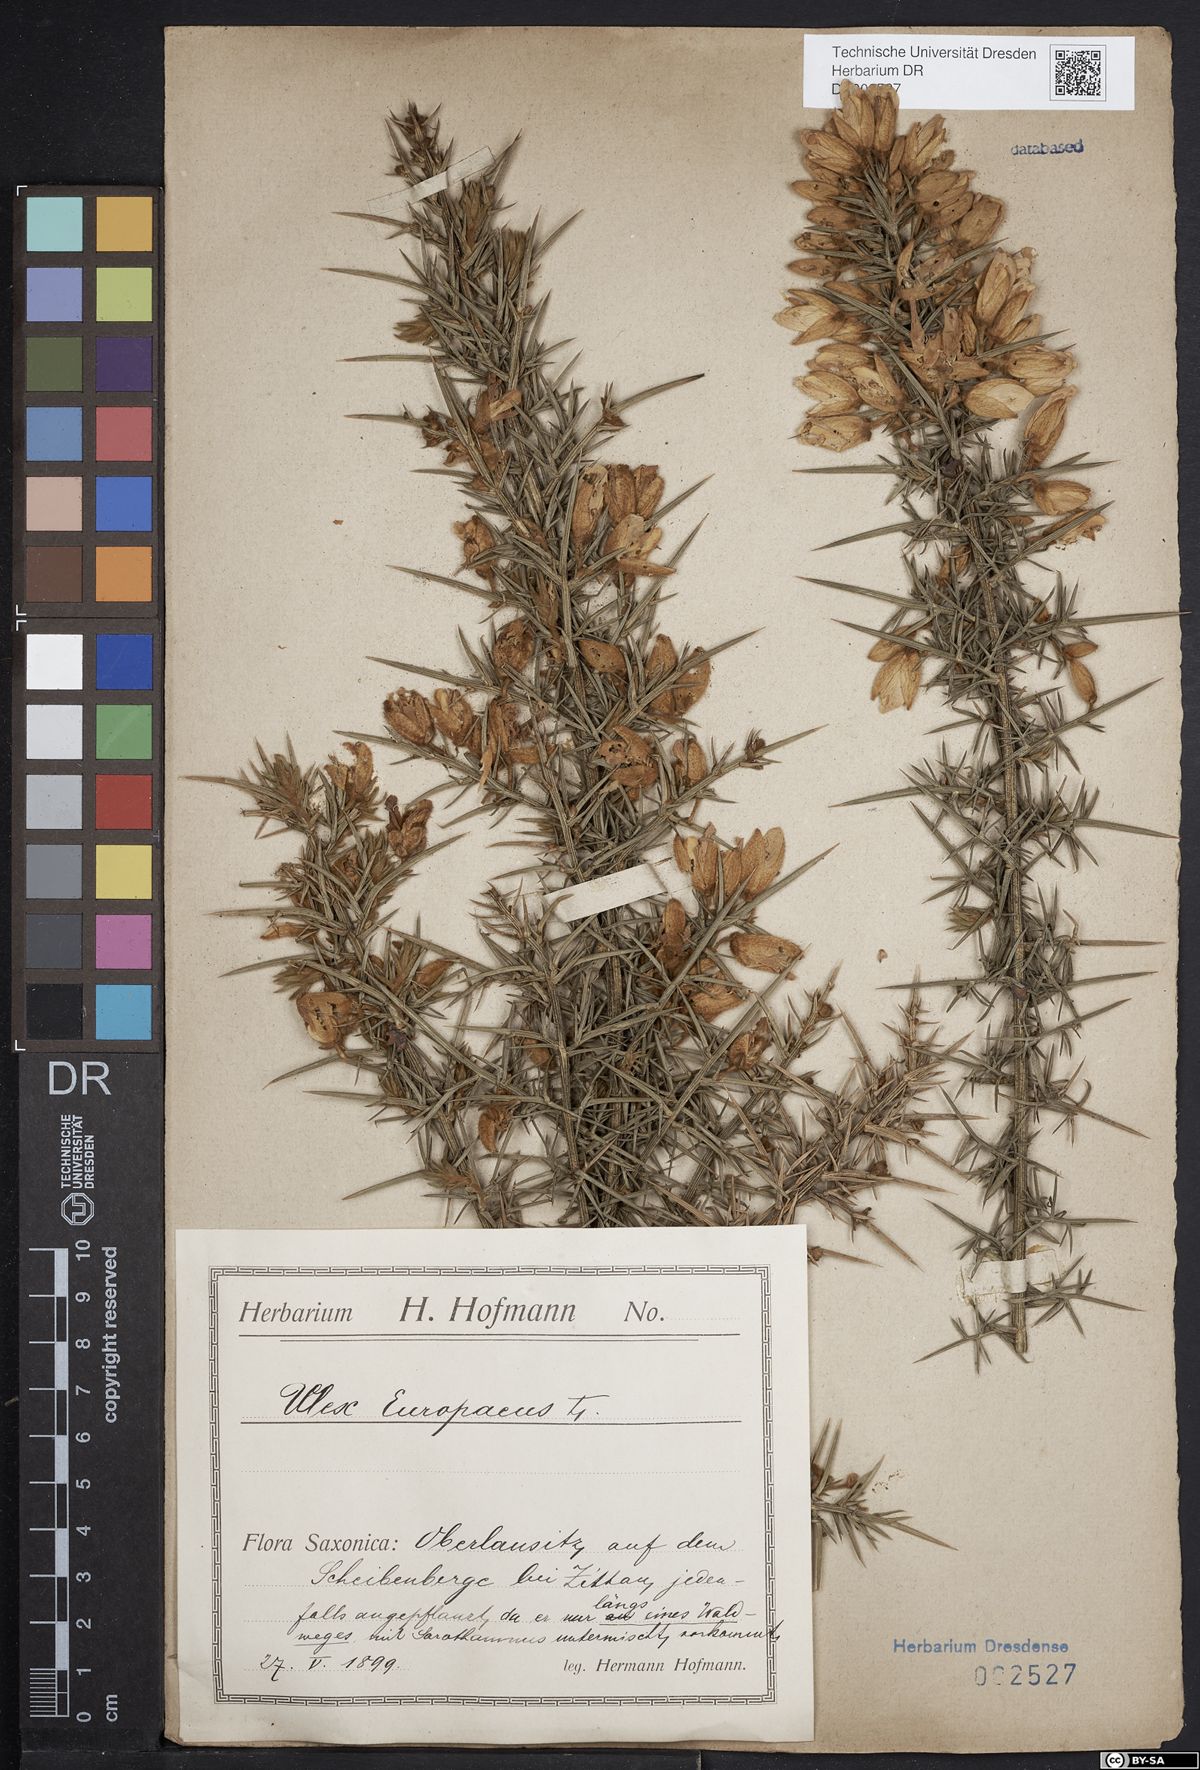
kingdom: Plantae
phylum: Tracheophyta
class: Magnoliopsida
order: Fabales
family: Fabaceae
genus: Ulex
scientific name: Ulex europaeus
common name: Common gorse
